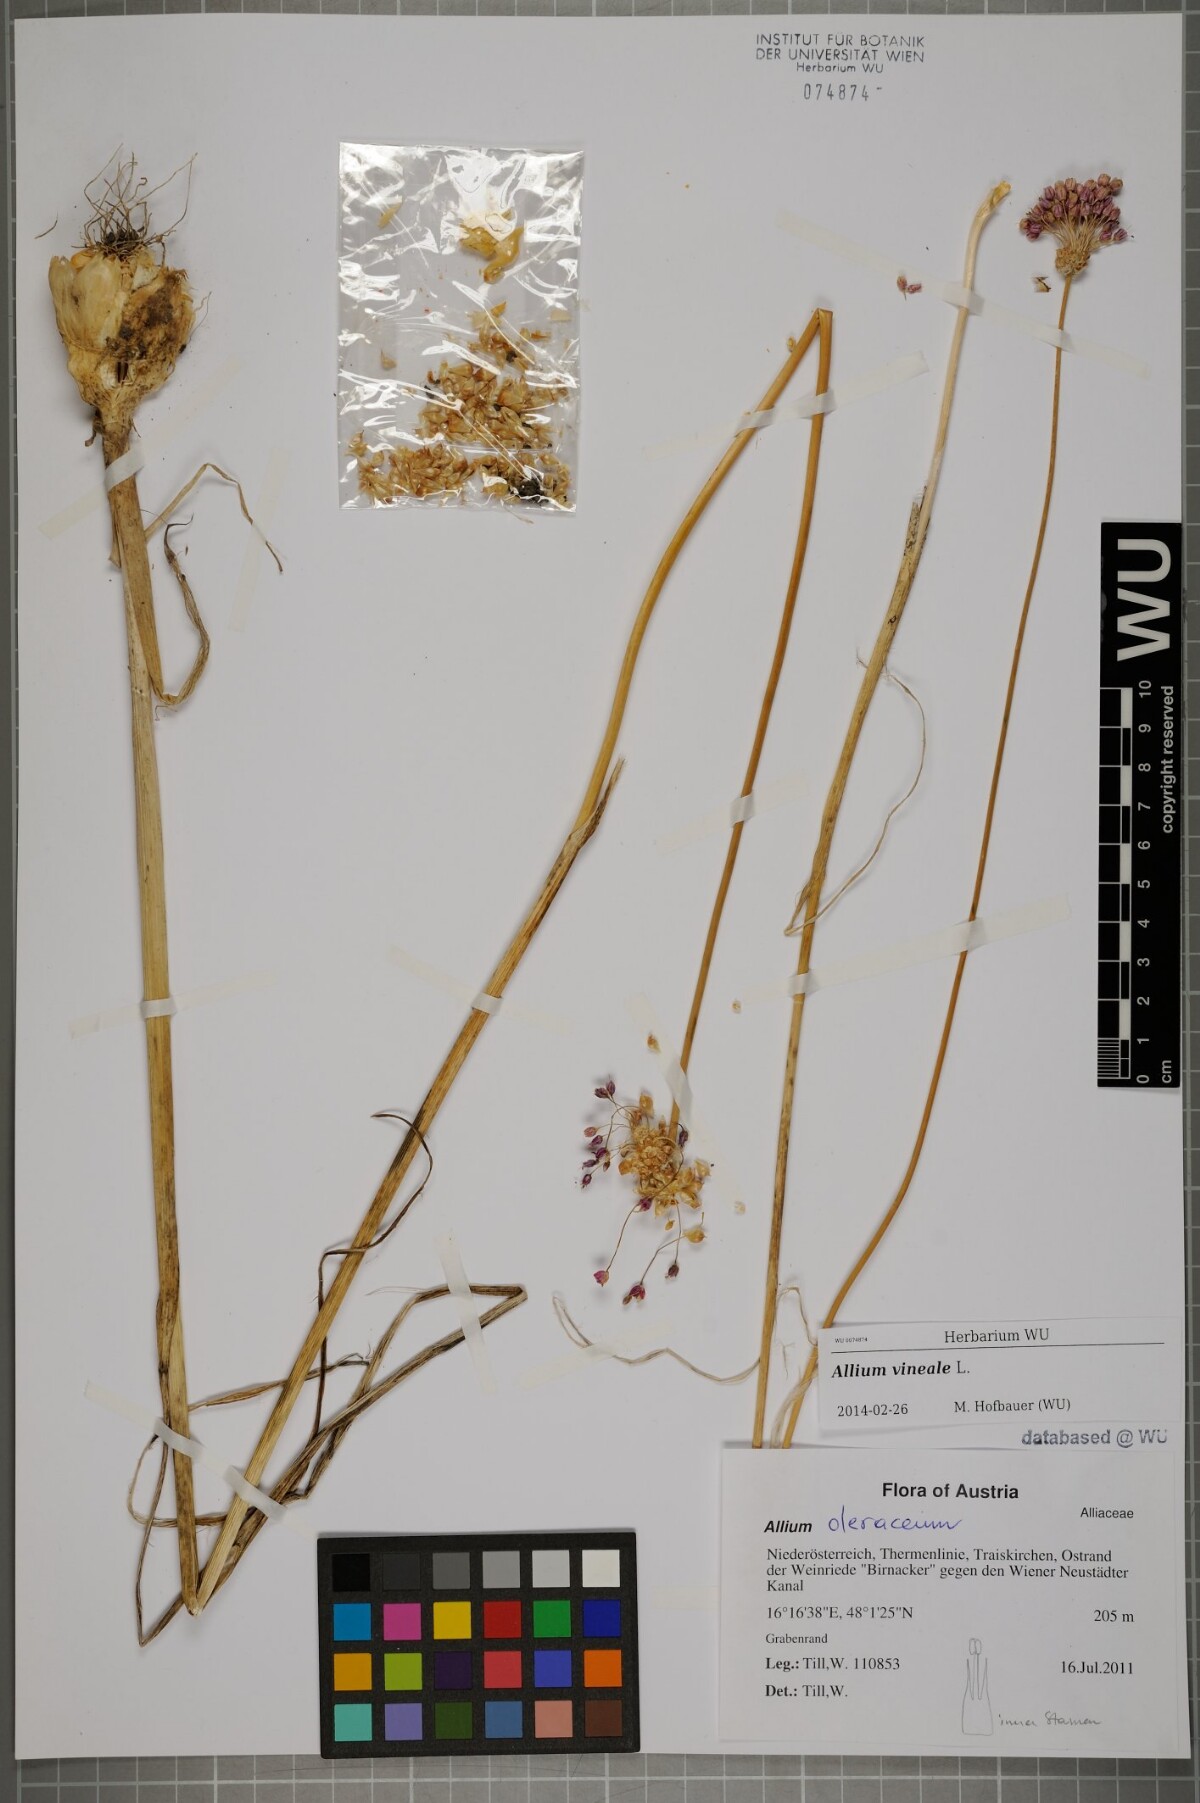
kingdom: Plantae
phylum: Tracheophyta
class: Liliopsida
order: Asparagales
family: Amaryllidaceae
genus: Allium
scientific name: Allium vineale
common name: Crow garlic
